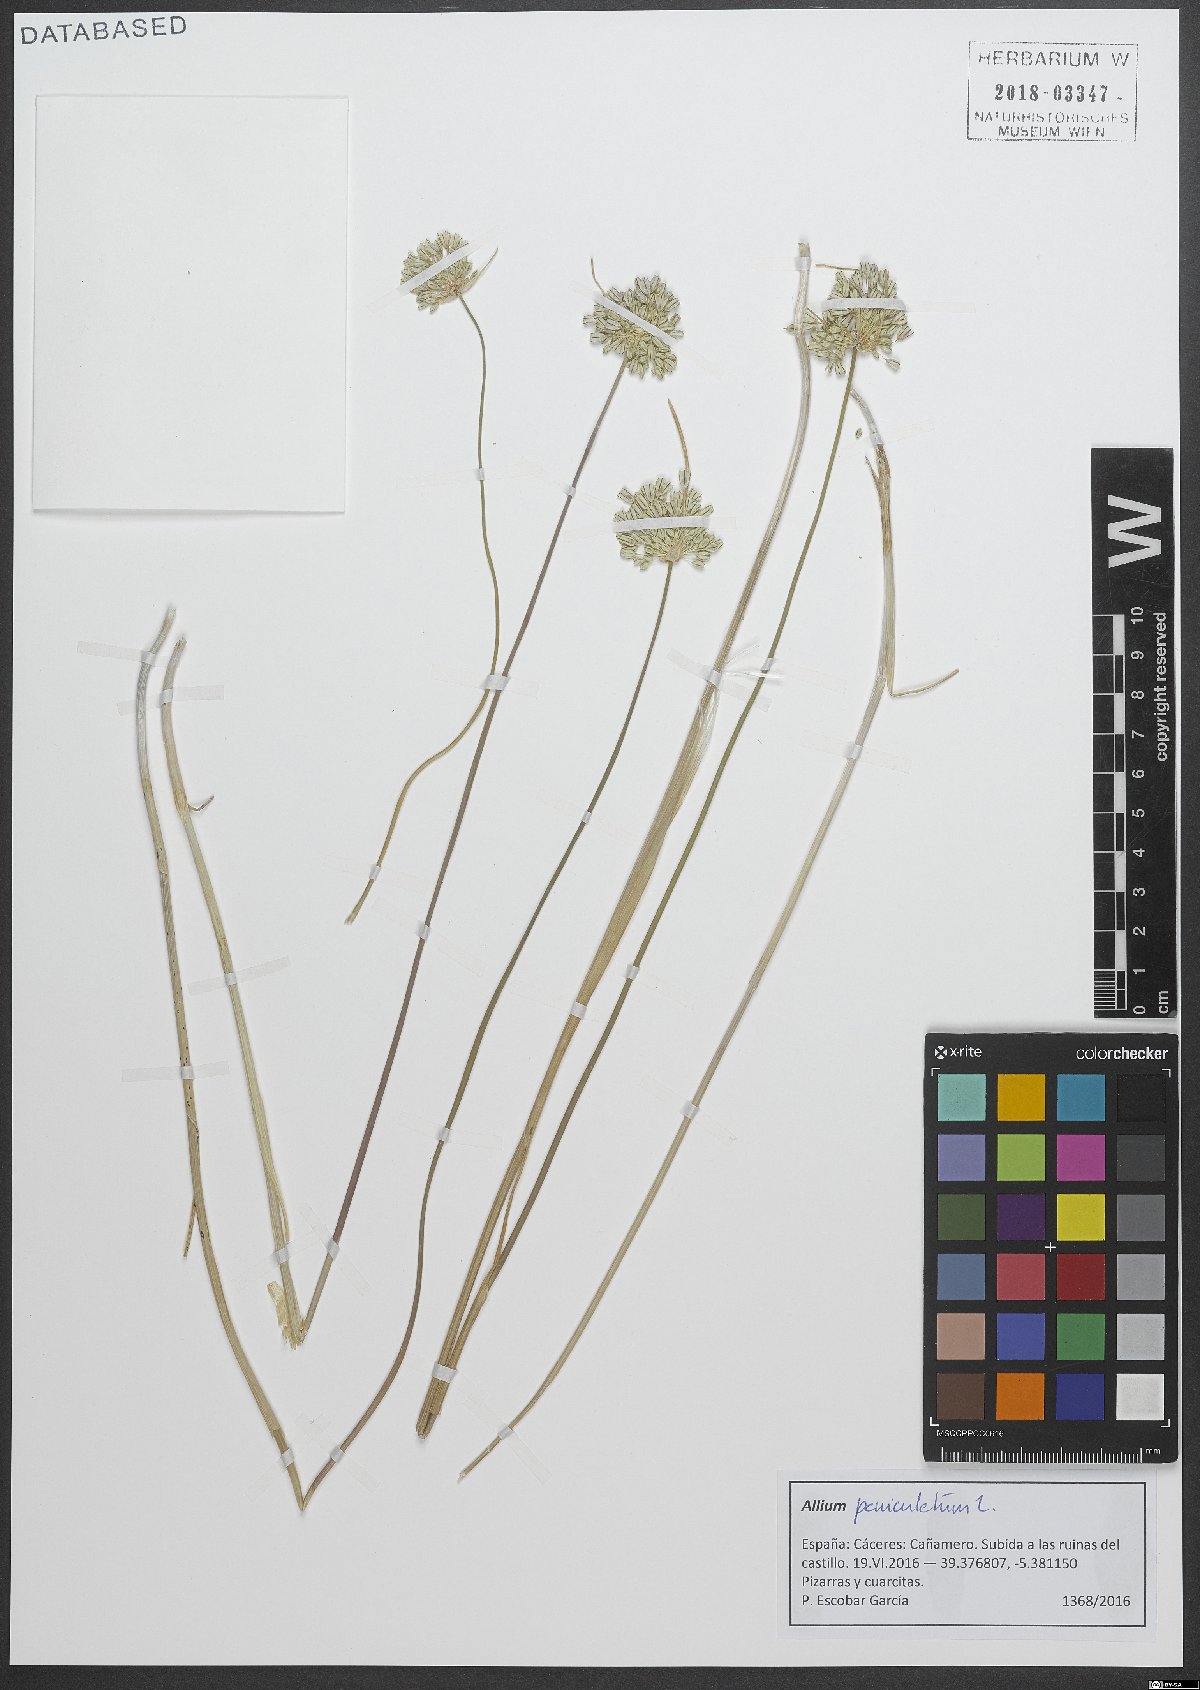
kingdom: Plantae
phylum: Tracheophyta
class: Liliopsida
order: Asparagales
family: Amaryllidaceae
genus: Allium
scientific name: Allium paniculatum
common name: Pale garlic
